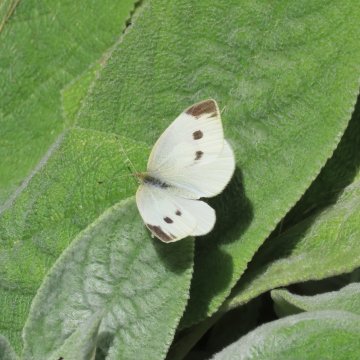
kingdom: Animalia
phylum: Arthropoda
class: Insecta
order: Lepidoptera
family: Pieridae
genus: Pieris
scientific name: Pieris rapae
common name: Cabbage White
